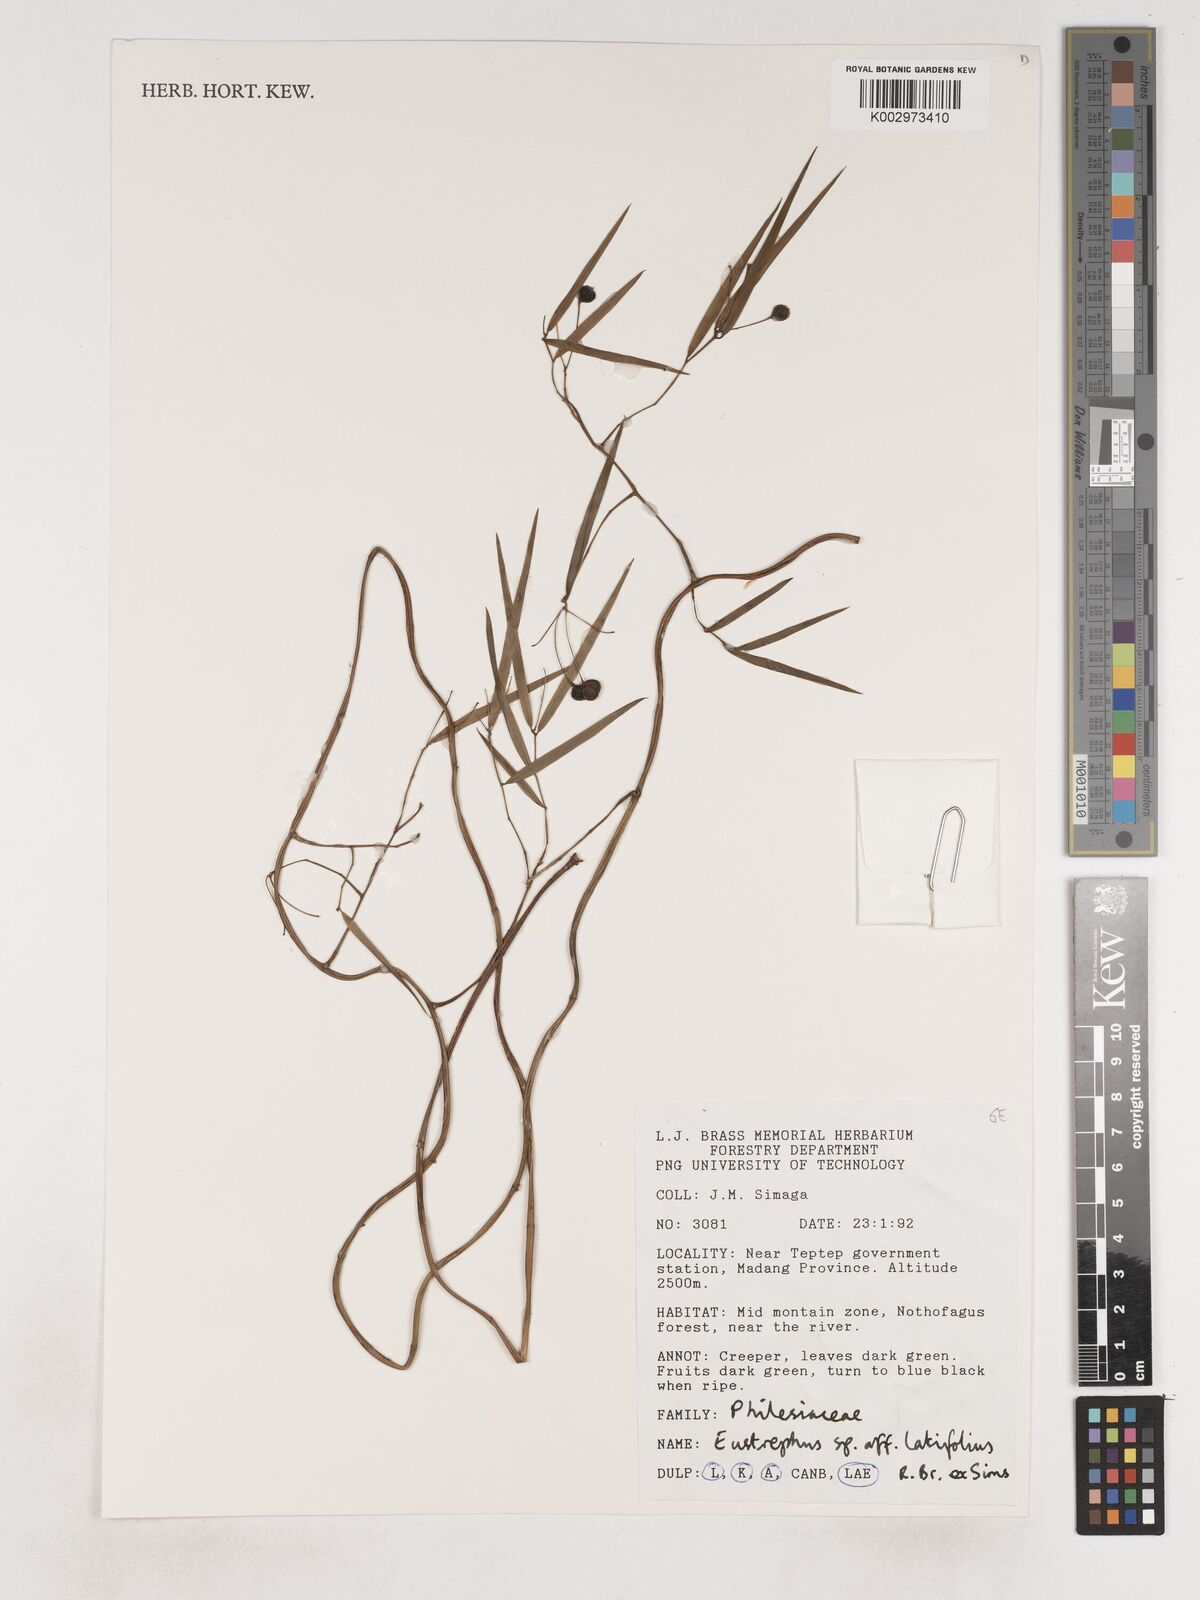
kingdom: Plantae
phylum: Tracheophyta
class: Liliopsida
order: Asparagales
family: Asparagaceae
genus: Eustrephus
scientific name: Eustrephus latifolius
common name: Orangevine
